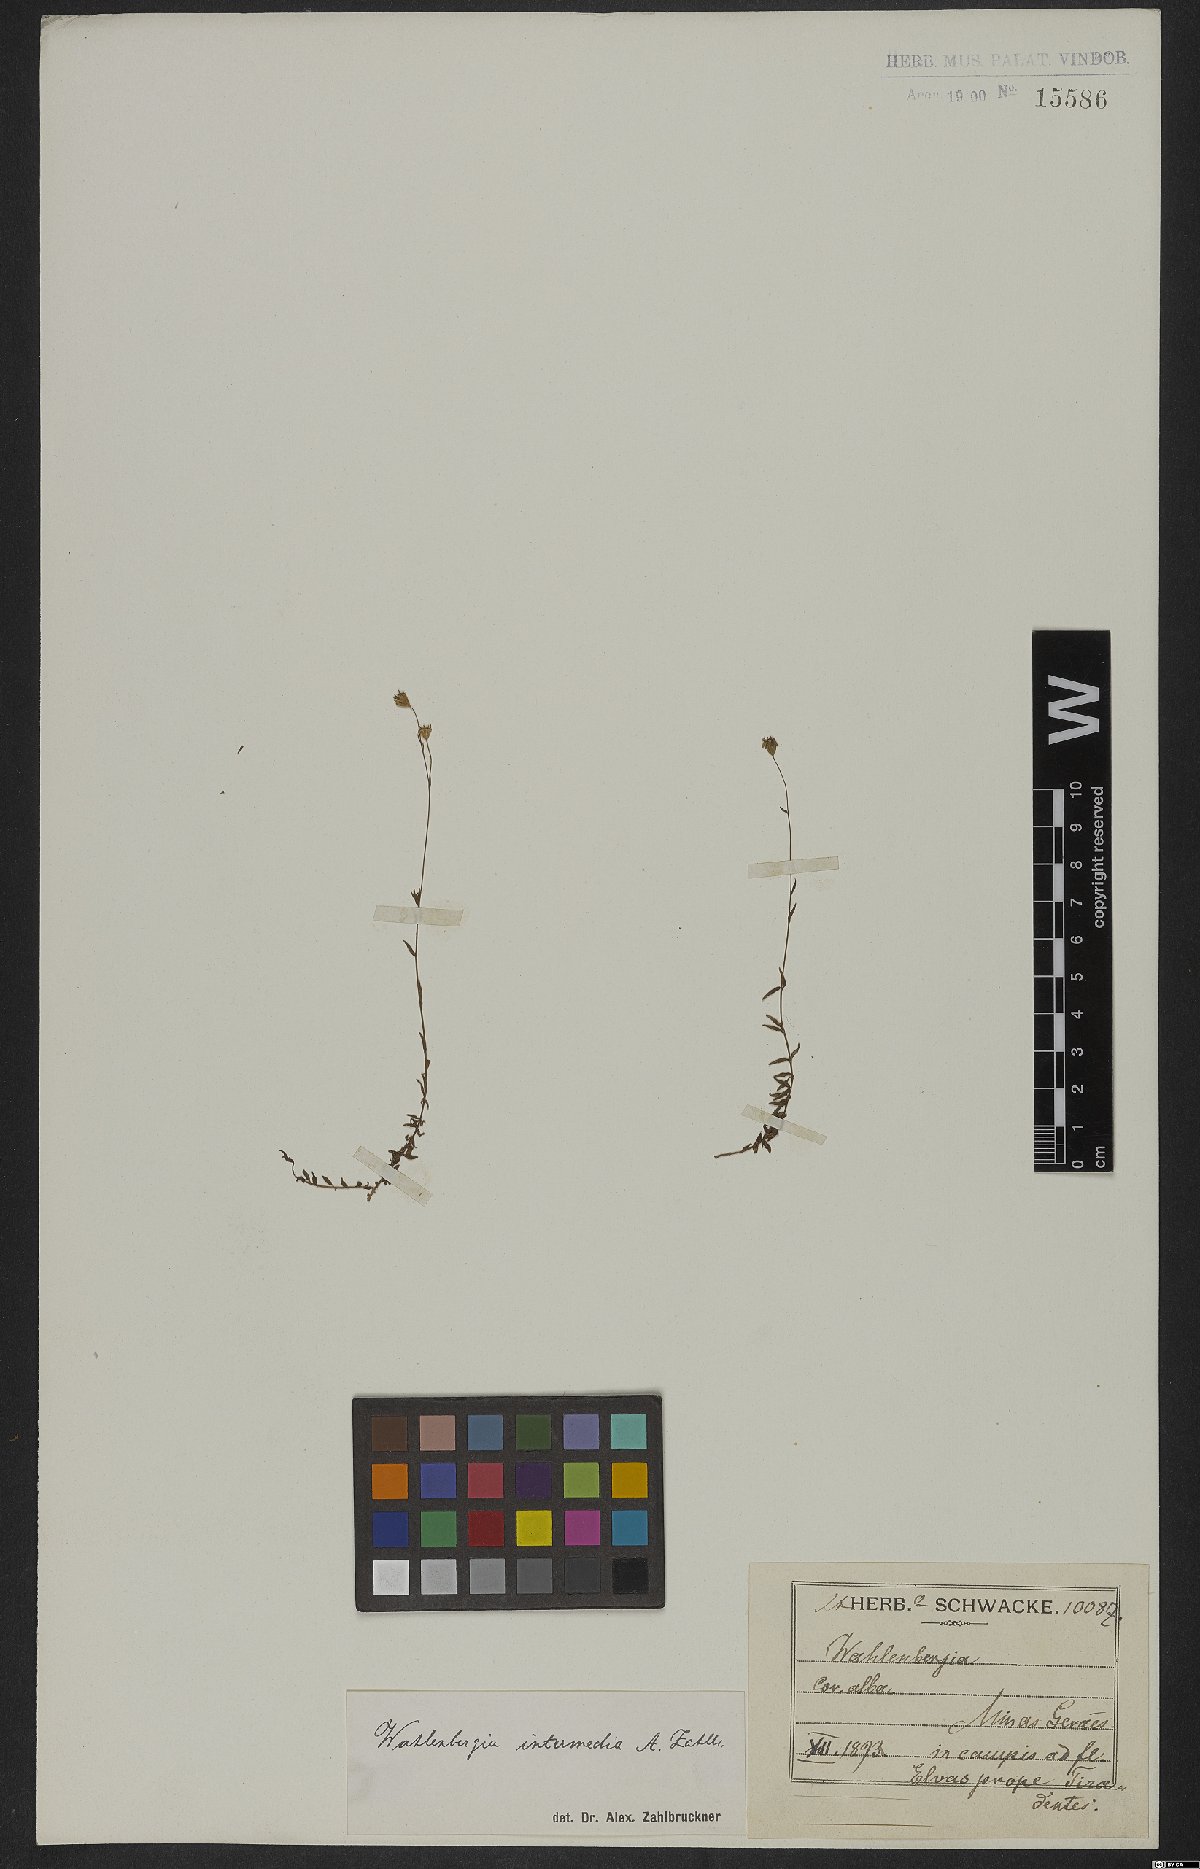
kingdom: Plantae
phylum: Tracheophyta
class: Magnoliopsida
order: Asterales
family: Campanulaceae
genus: Wahlenbergia
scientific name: Wahlenbergia intermedia
